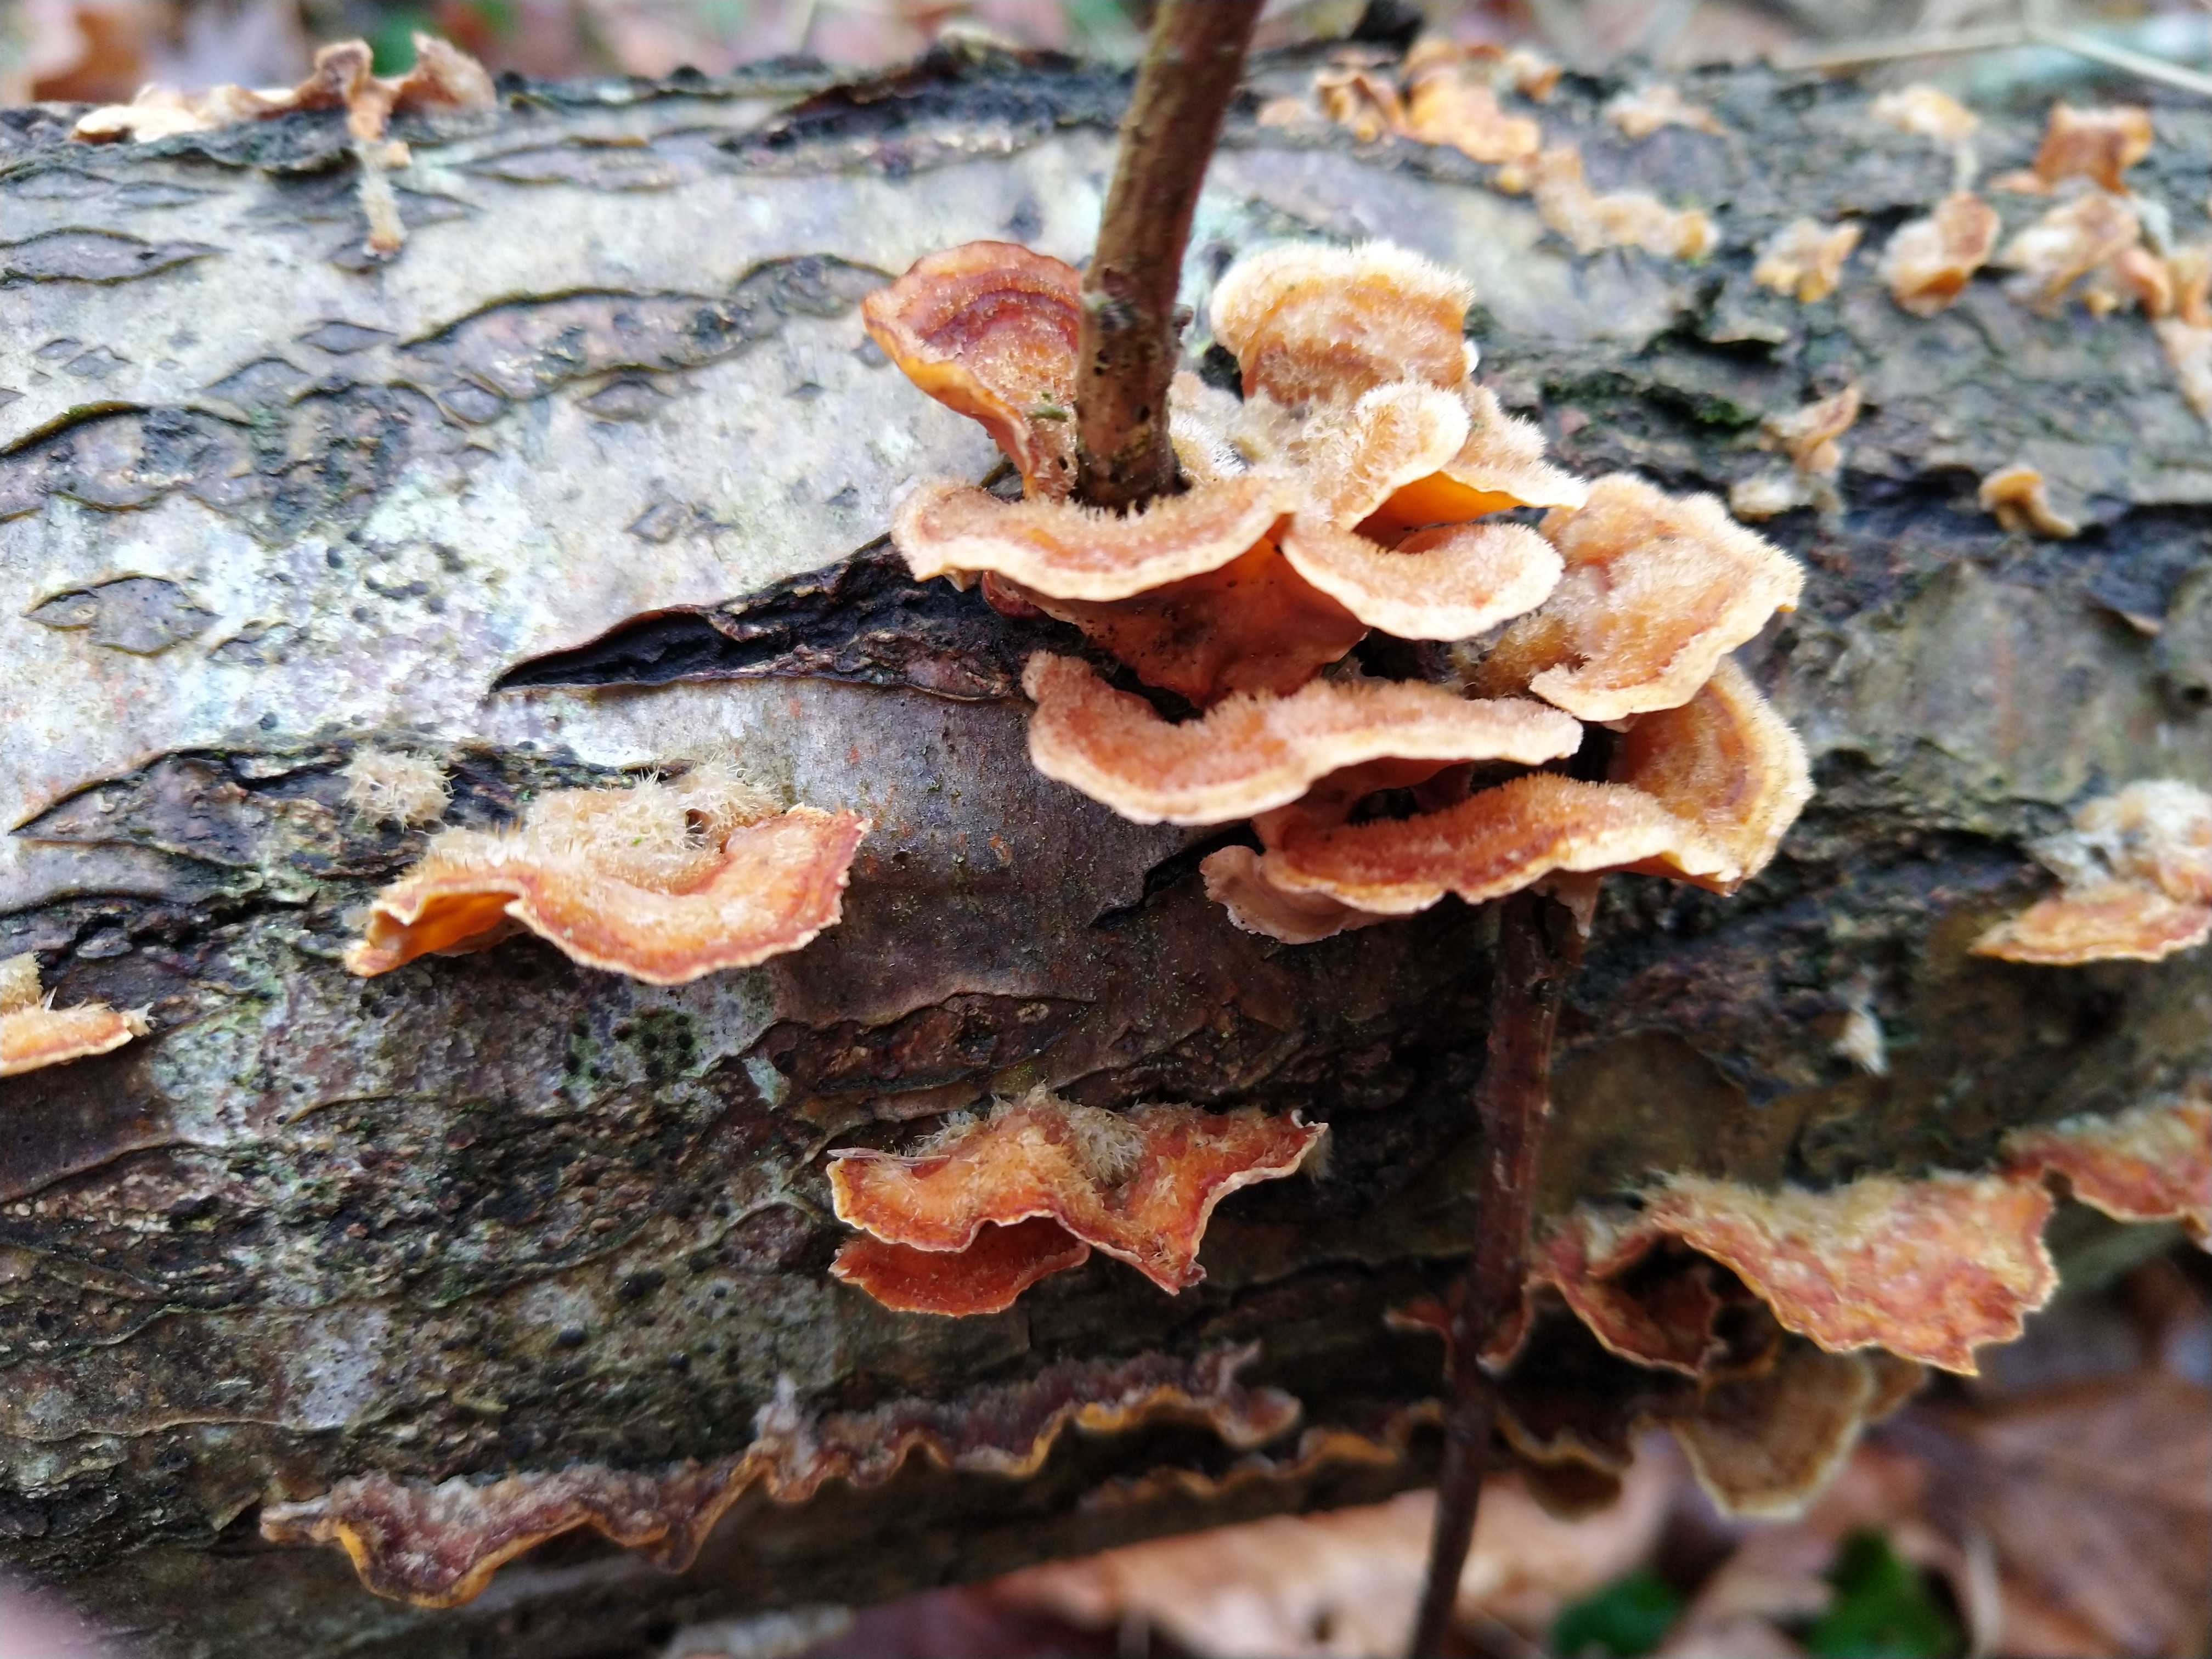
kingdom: Fungi
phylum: Basidiomycota
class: Agaricomycetes
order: Russulales
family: Stereaceae
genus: Stereum
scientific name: Stereum hirsutum
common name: håret lædersvamp
